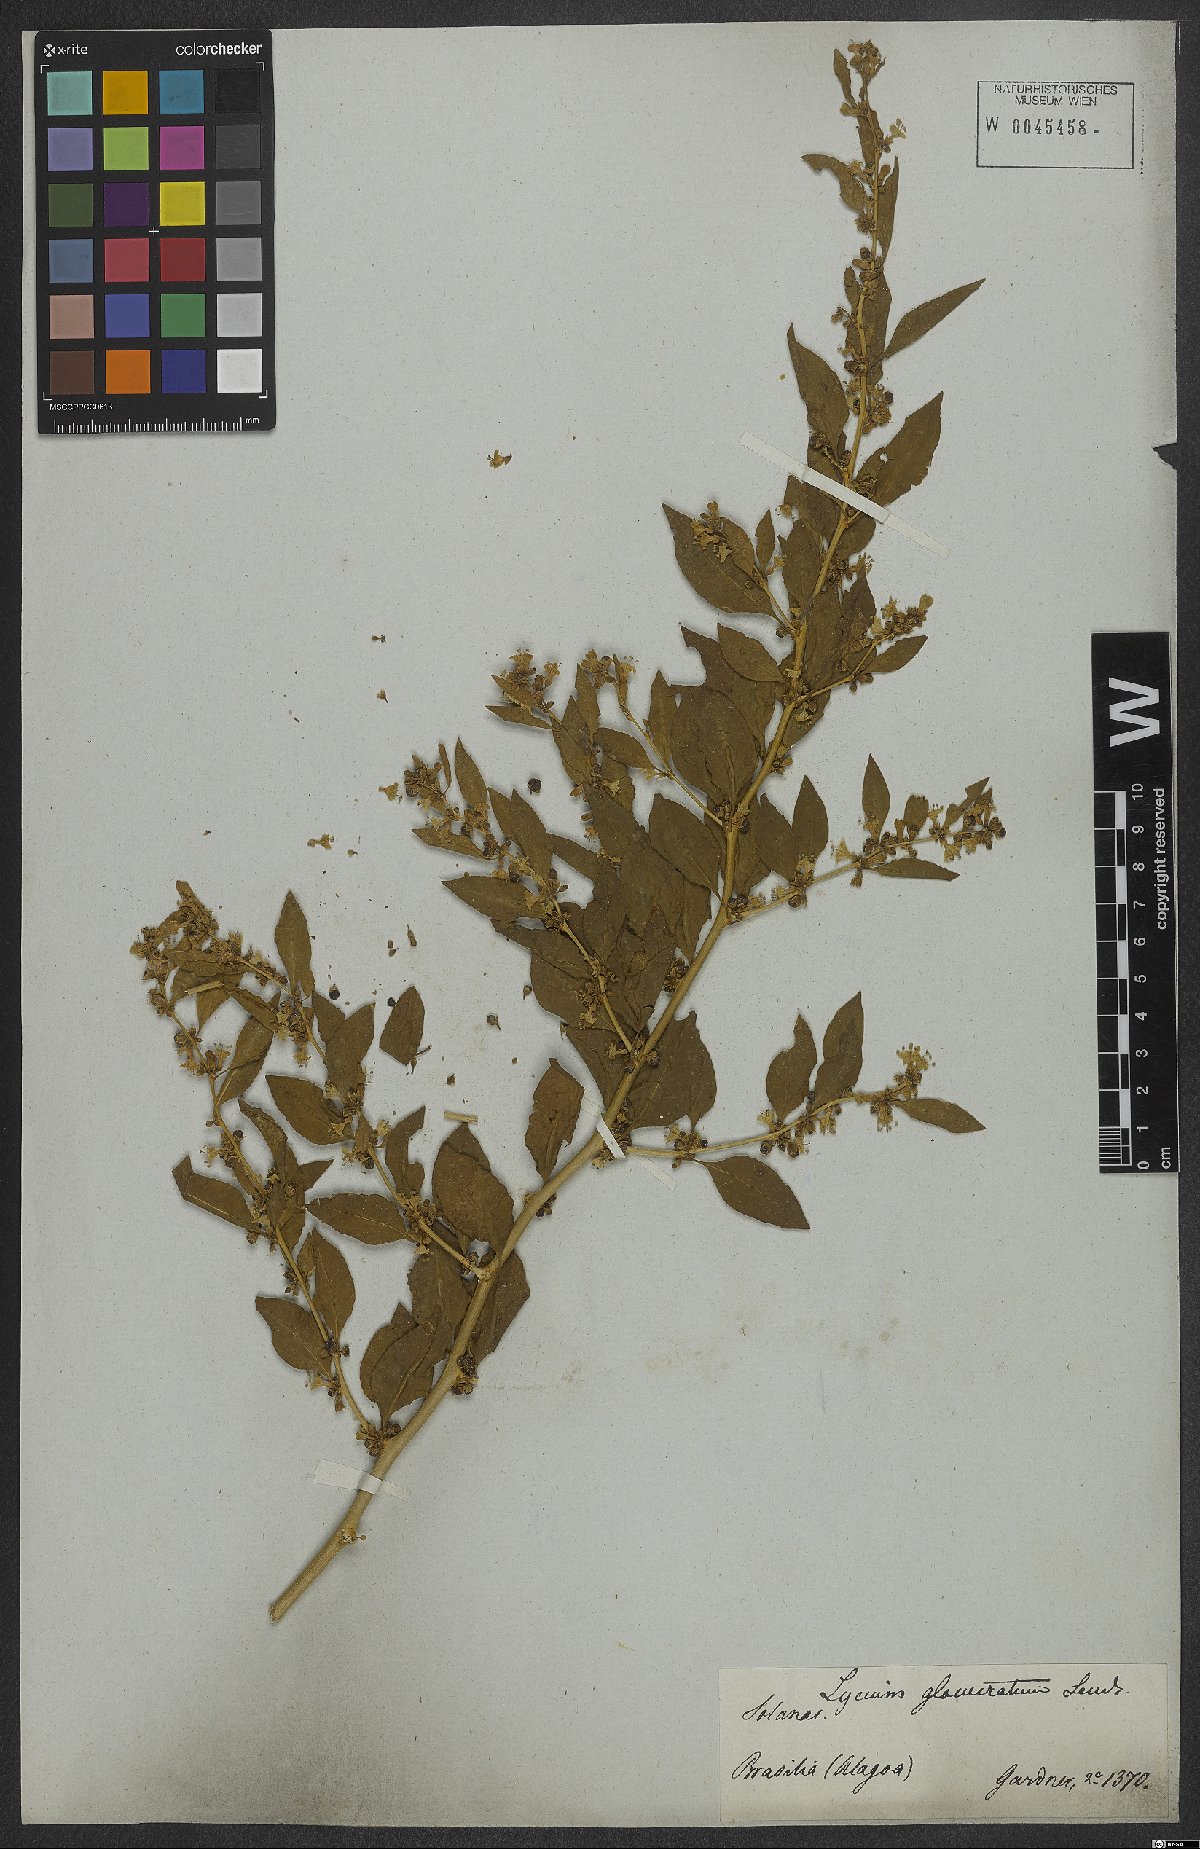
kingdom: Plantae
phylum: Tracheophyta
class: Magnoliopsida
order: Solanales
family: Solanaceae
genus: Lycium
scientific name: Lycium glomeratum
